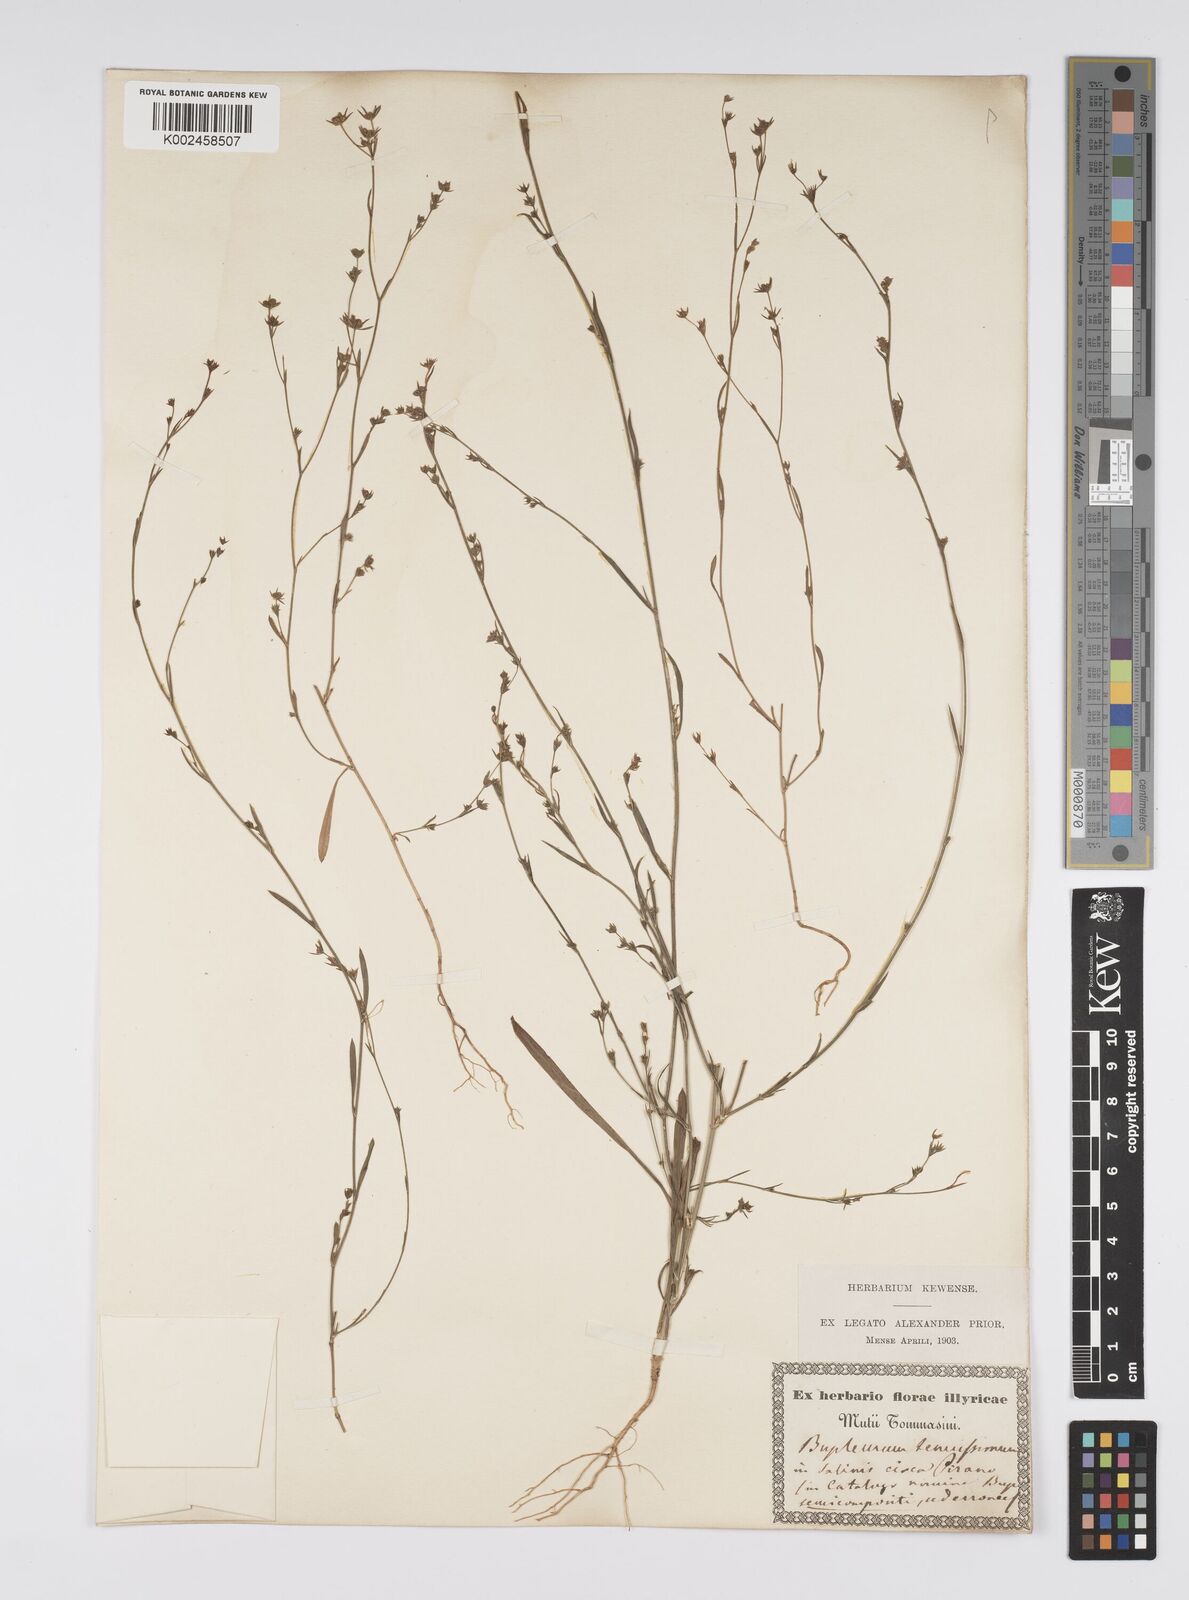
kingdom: Plantae
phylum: Tracheophyta
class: Magnoliopsida
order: Apiales
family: Apiaceae
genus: Bupleurum
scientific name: Bupleurum tenuissimum
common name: Slender hare's-ear
